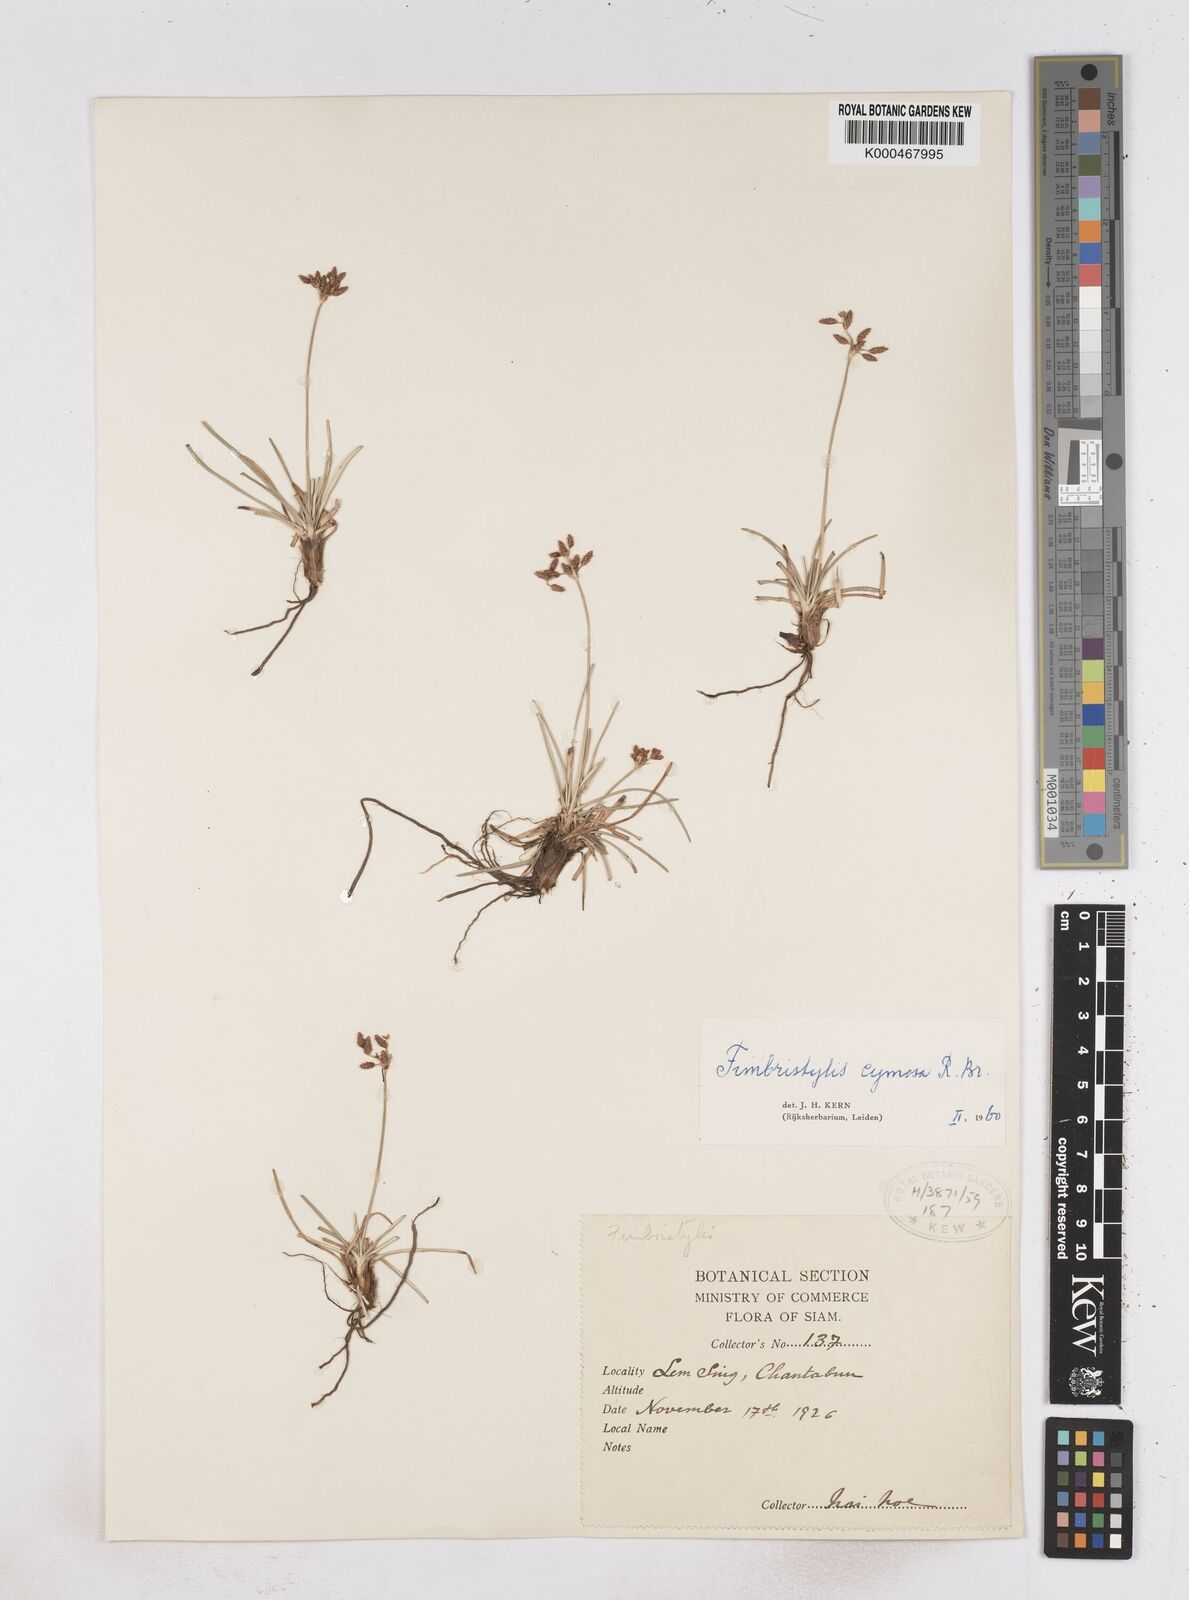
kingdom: Plantae
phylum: Tracheophyta
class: Liliopsida
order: Poales
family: Cyperaceae
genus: Fimbristylis
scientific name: Fimbristylis cymosa
